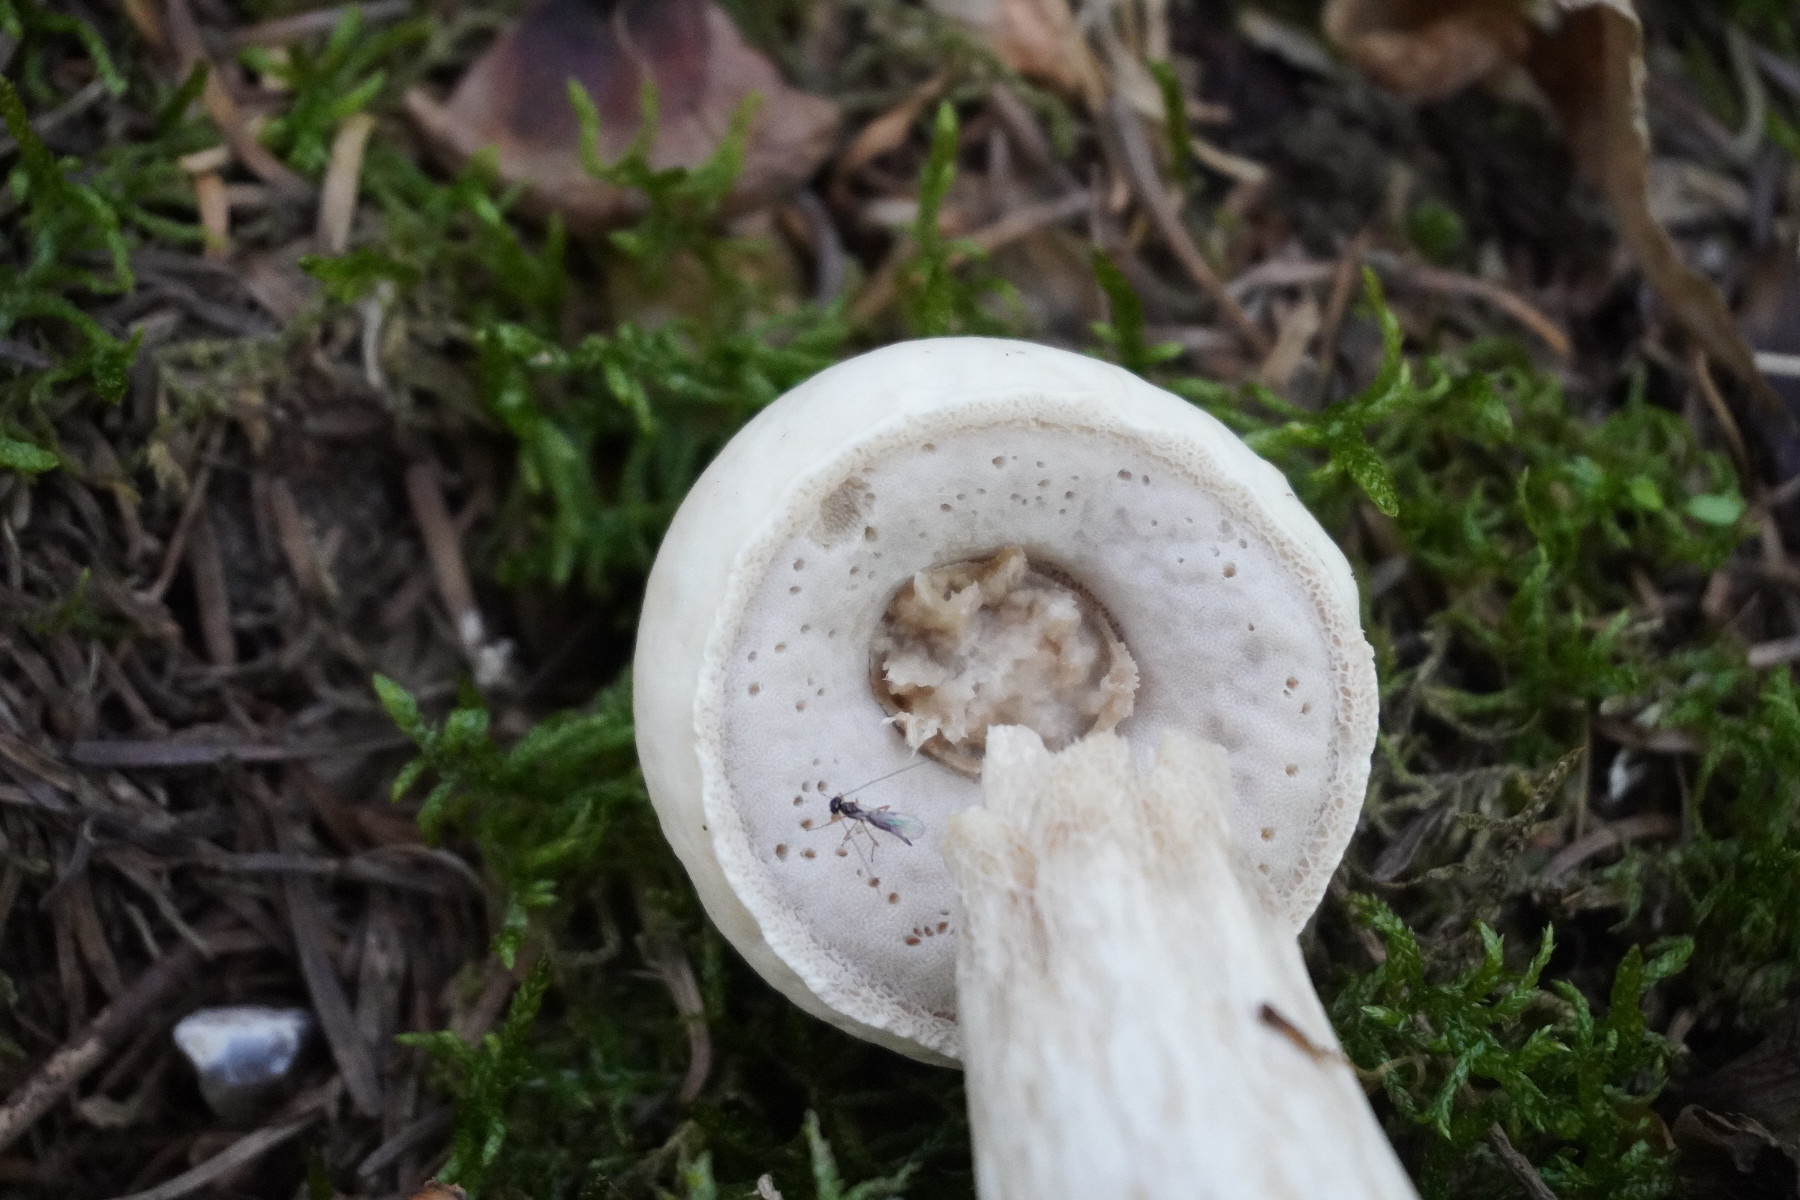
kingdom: Fungi
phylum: Ascomycota
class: Sordariomycetes
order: Hypocreales
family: Hypocreaceae
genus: Hypomyces
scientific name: Hypomyces
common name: snylteskorpe
